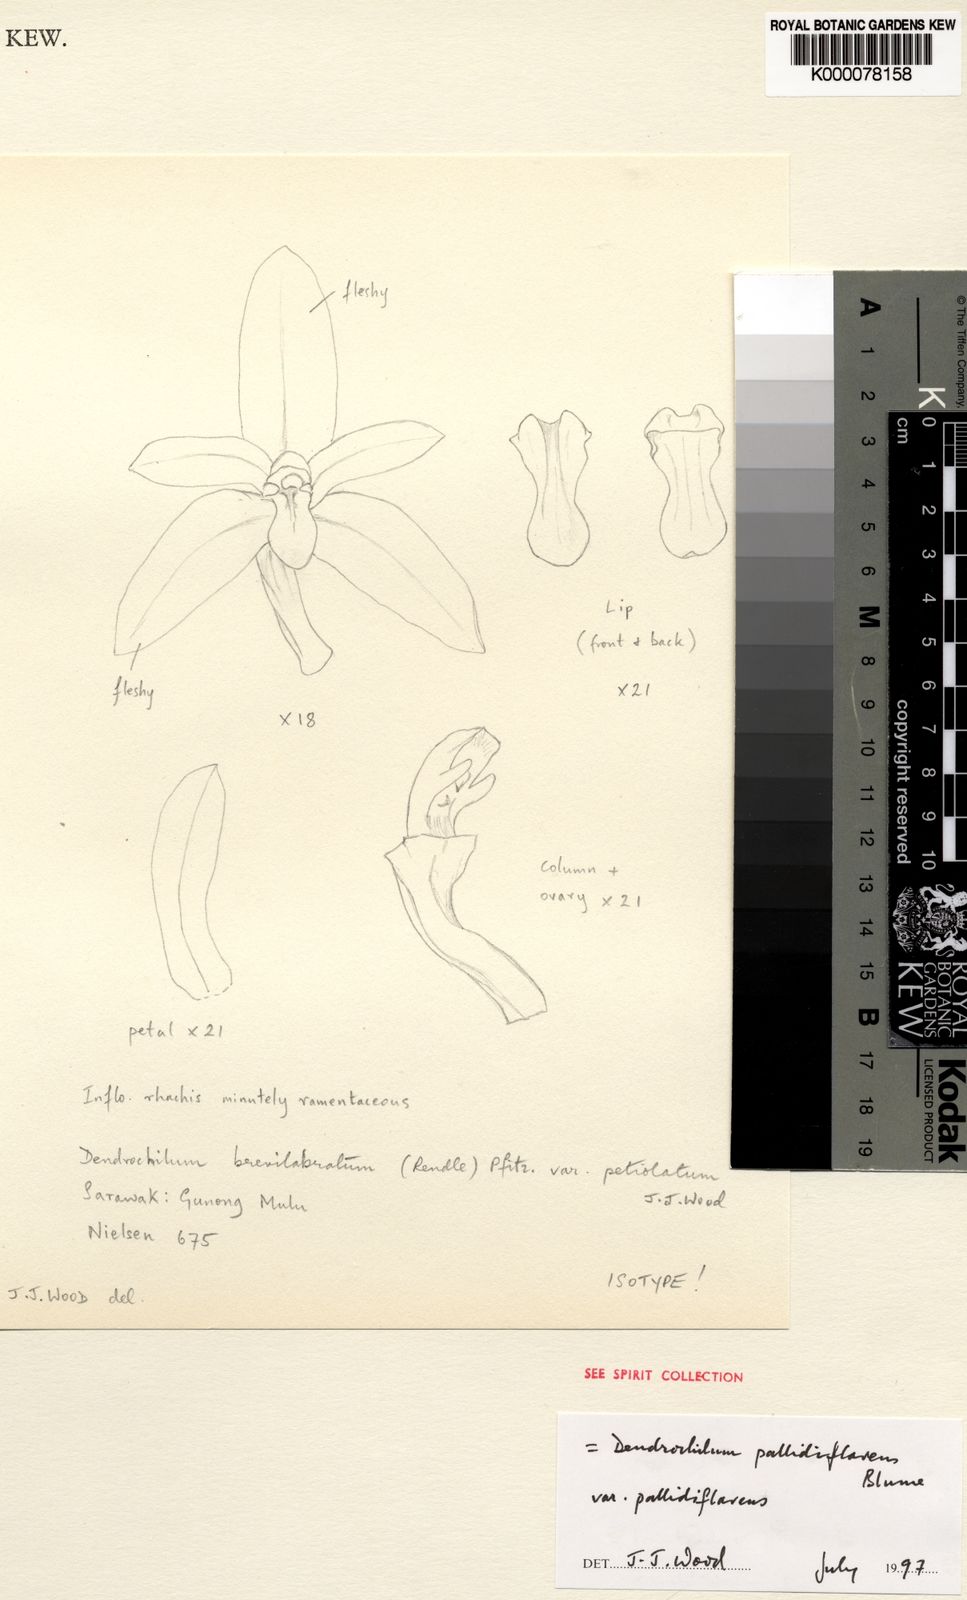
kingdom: Plantae
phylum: Tracheophyta
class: Liliopsida
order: Asparagales
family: Orchidaceae
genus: Coelogyne
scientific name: Coelogyne pallidiflavens
